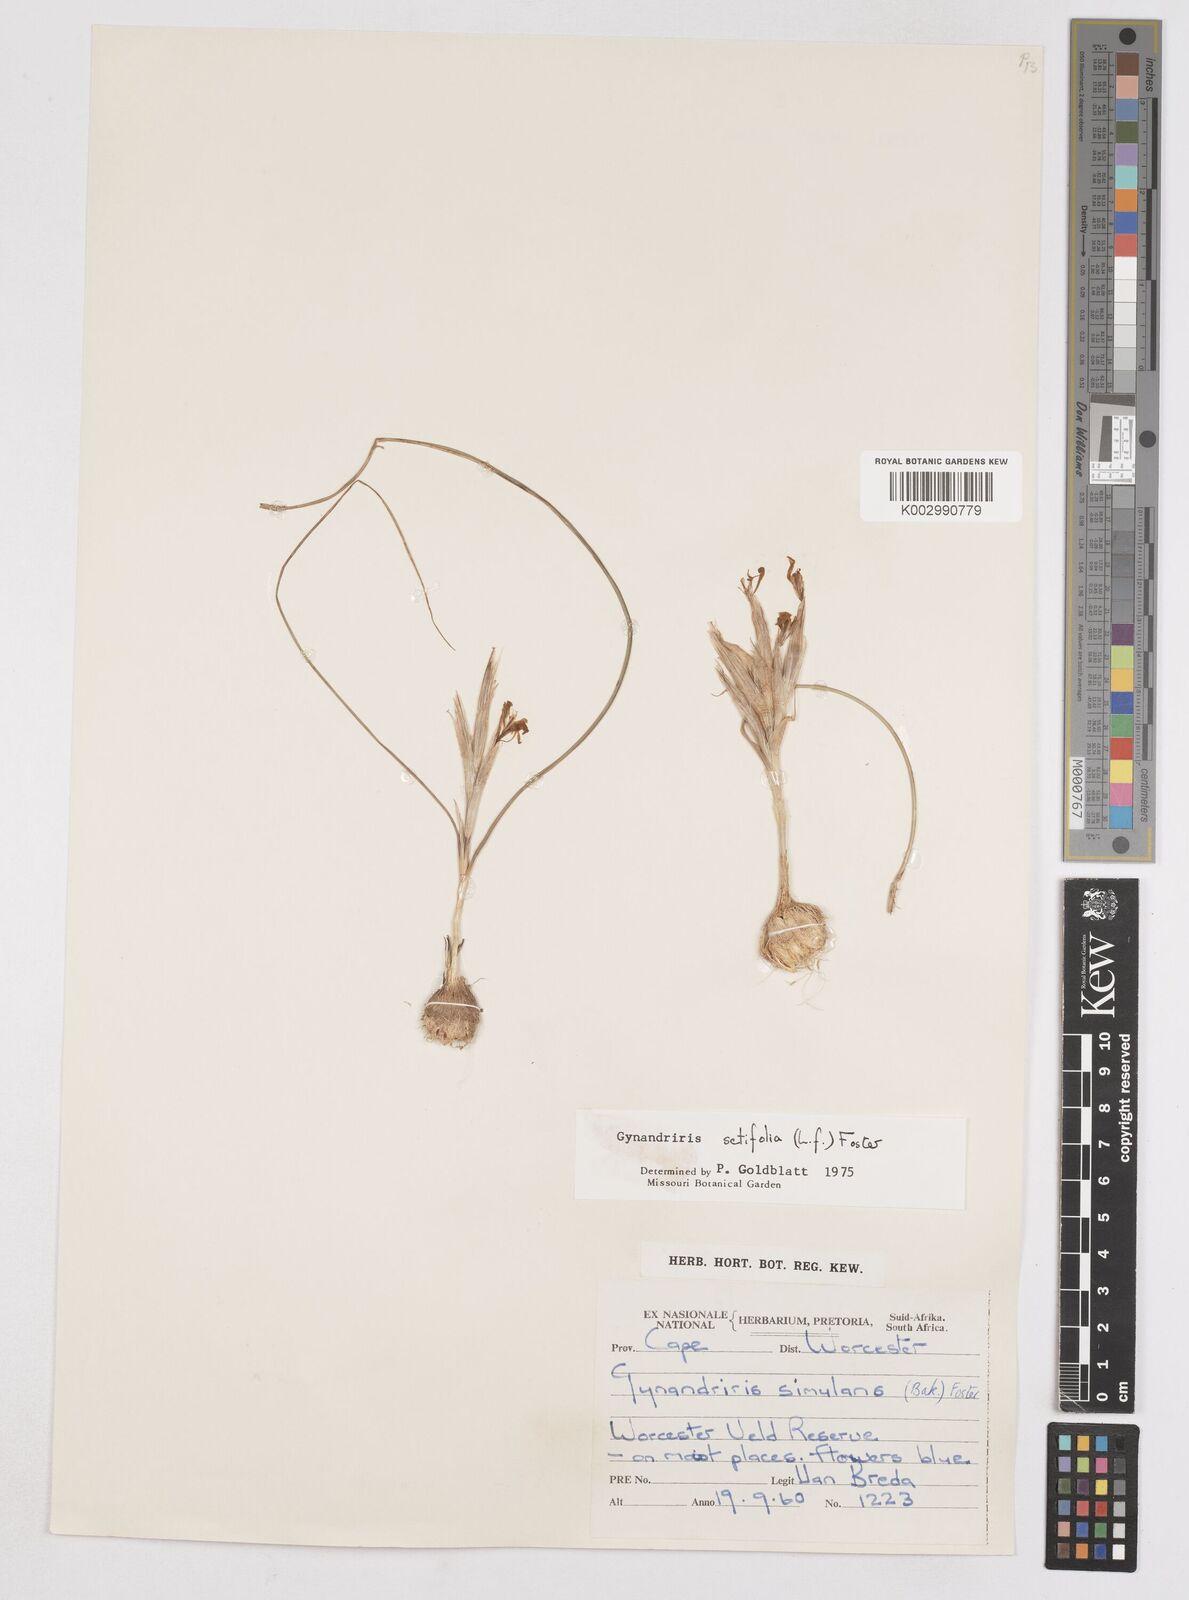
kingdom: Plantae
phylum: Tracheophyta
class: Liliopsida
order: Asparagales
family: Iridaceae
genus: Moraea
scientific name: Moraea setifolia
